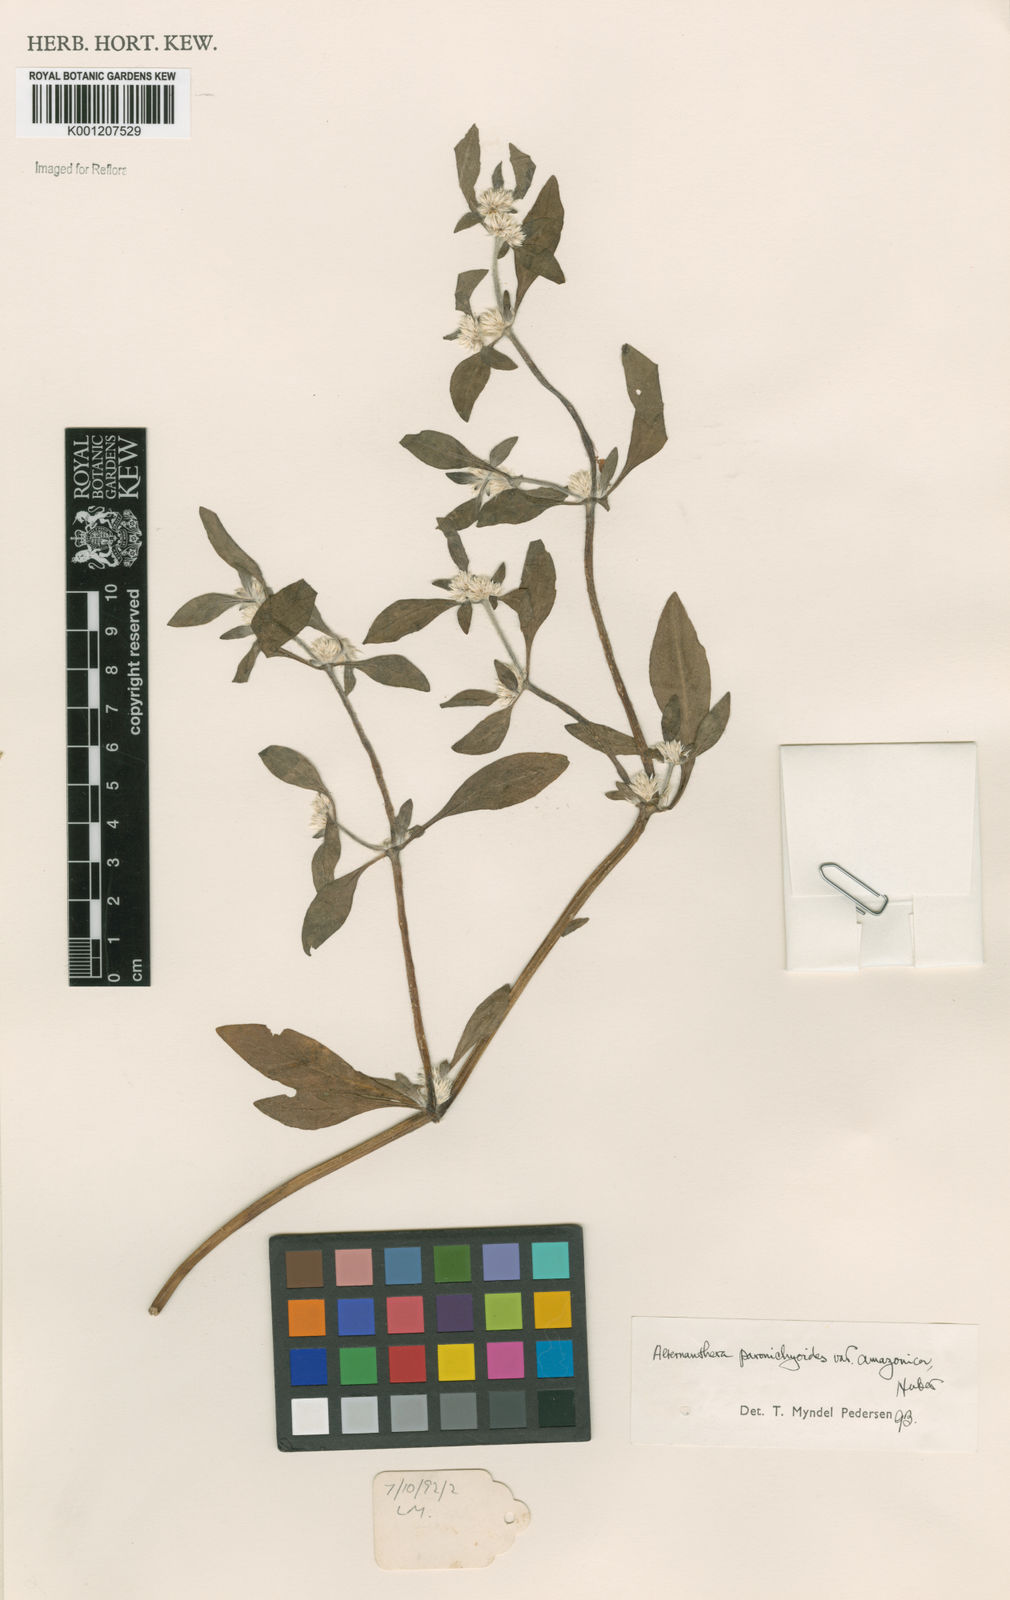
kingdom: Plantae
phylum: Tracheophyta
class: Magnoliopsida
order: Caryophyllales
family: Amaranthaceae
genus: Alternanthera
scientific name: Alternanthera paronychioides
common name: Smooth joyweed
